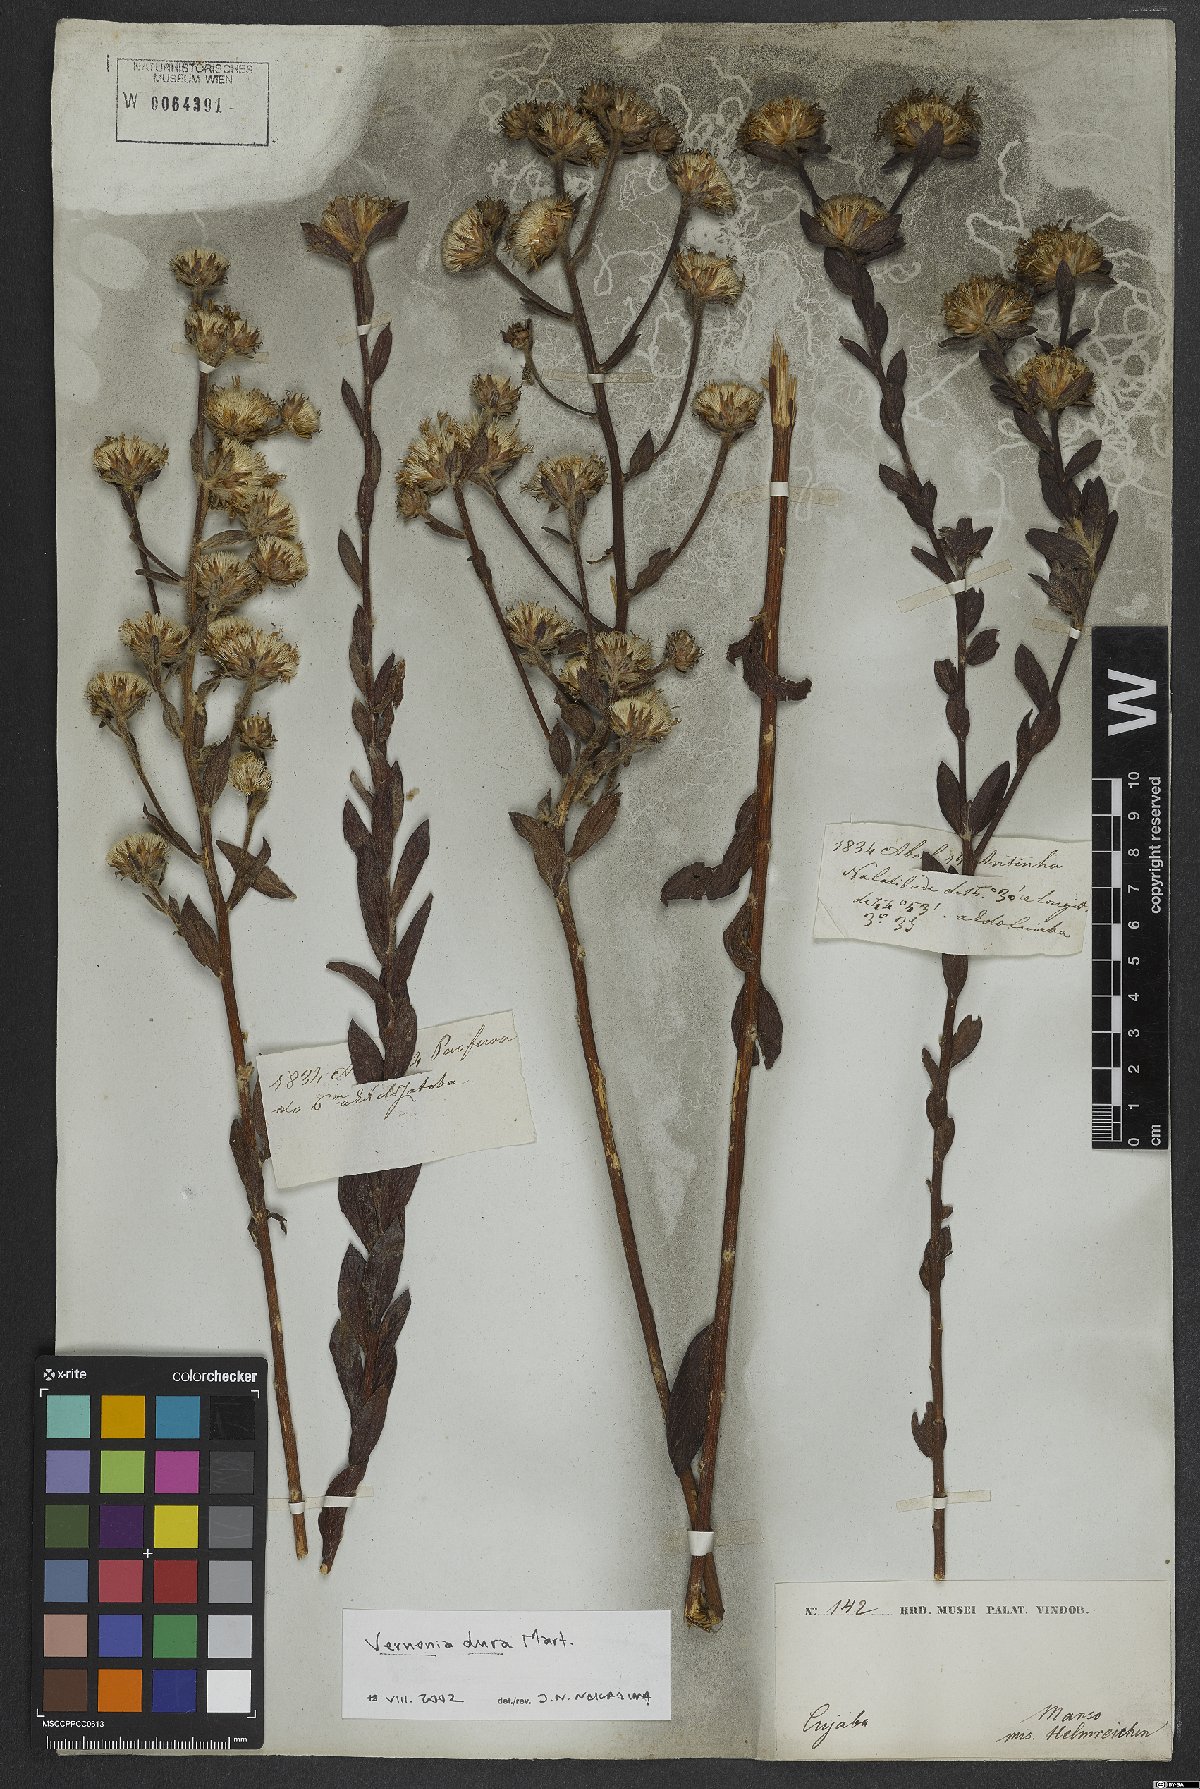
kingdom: Plantae
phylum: Tracheophyta
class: Magnoliopsida
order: Asterales
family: Asteraceae
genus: Lessingianthus
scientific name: Lessingianthus durus
